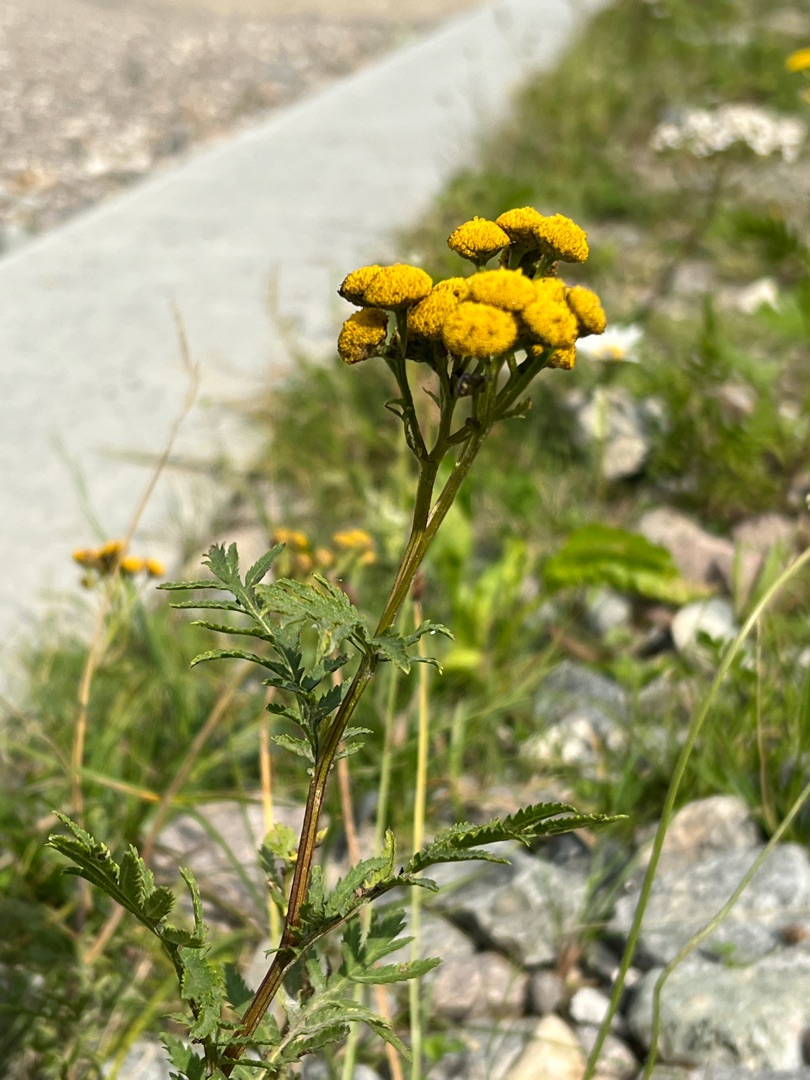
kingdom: Plantae
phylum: Tracheophyta
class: Magnoliopsida
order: Asterales
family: Asteraceae
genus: Tanacetum
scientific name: Tanacetum vulgare
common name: Rejnfan
